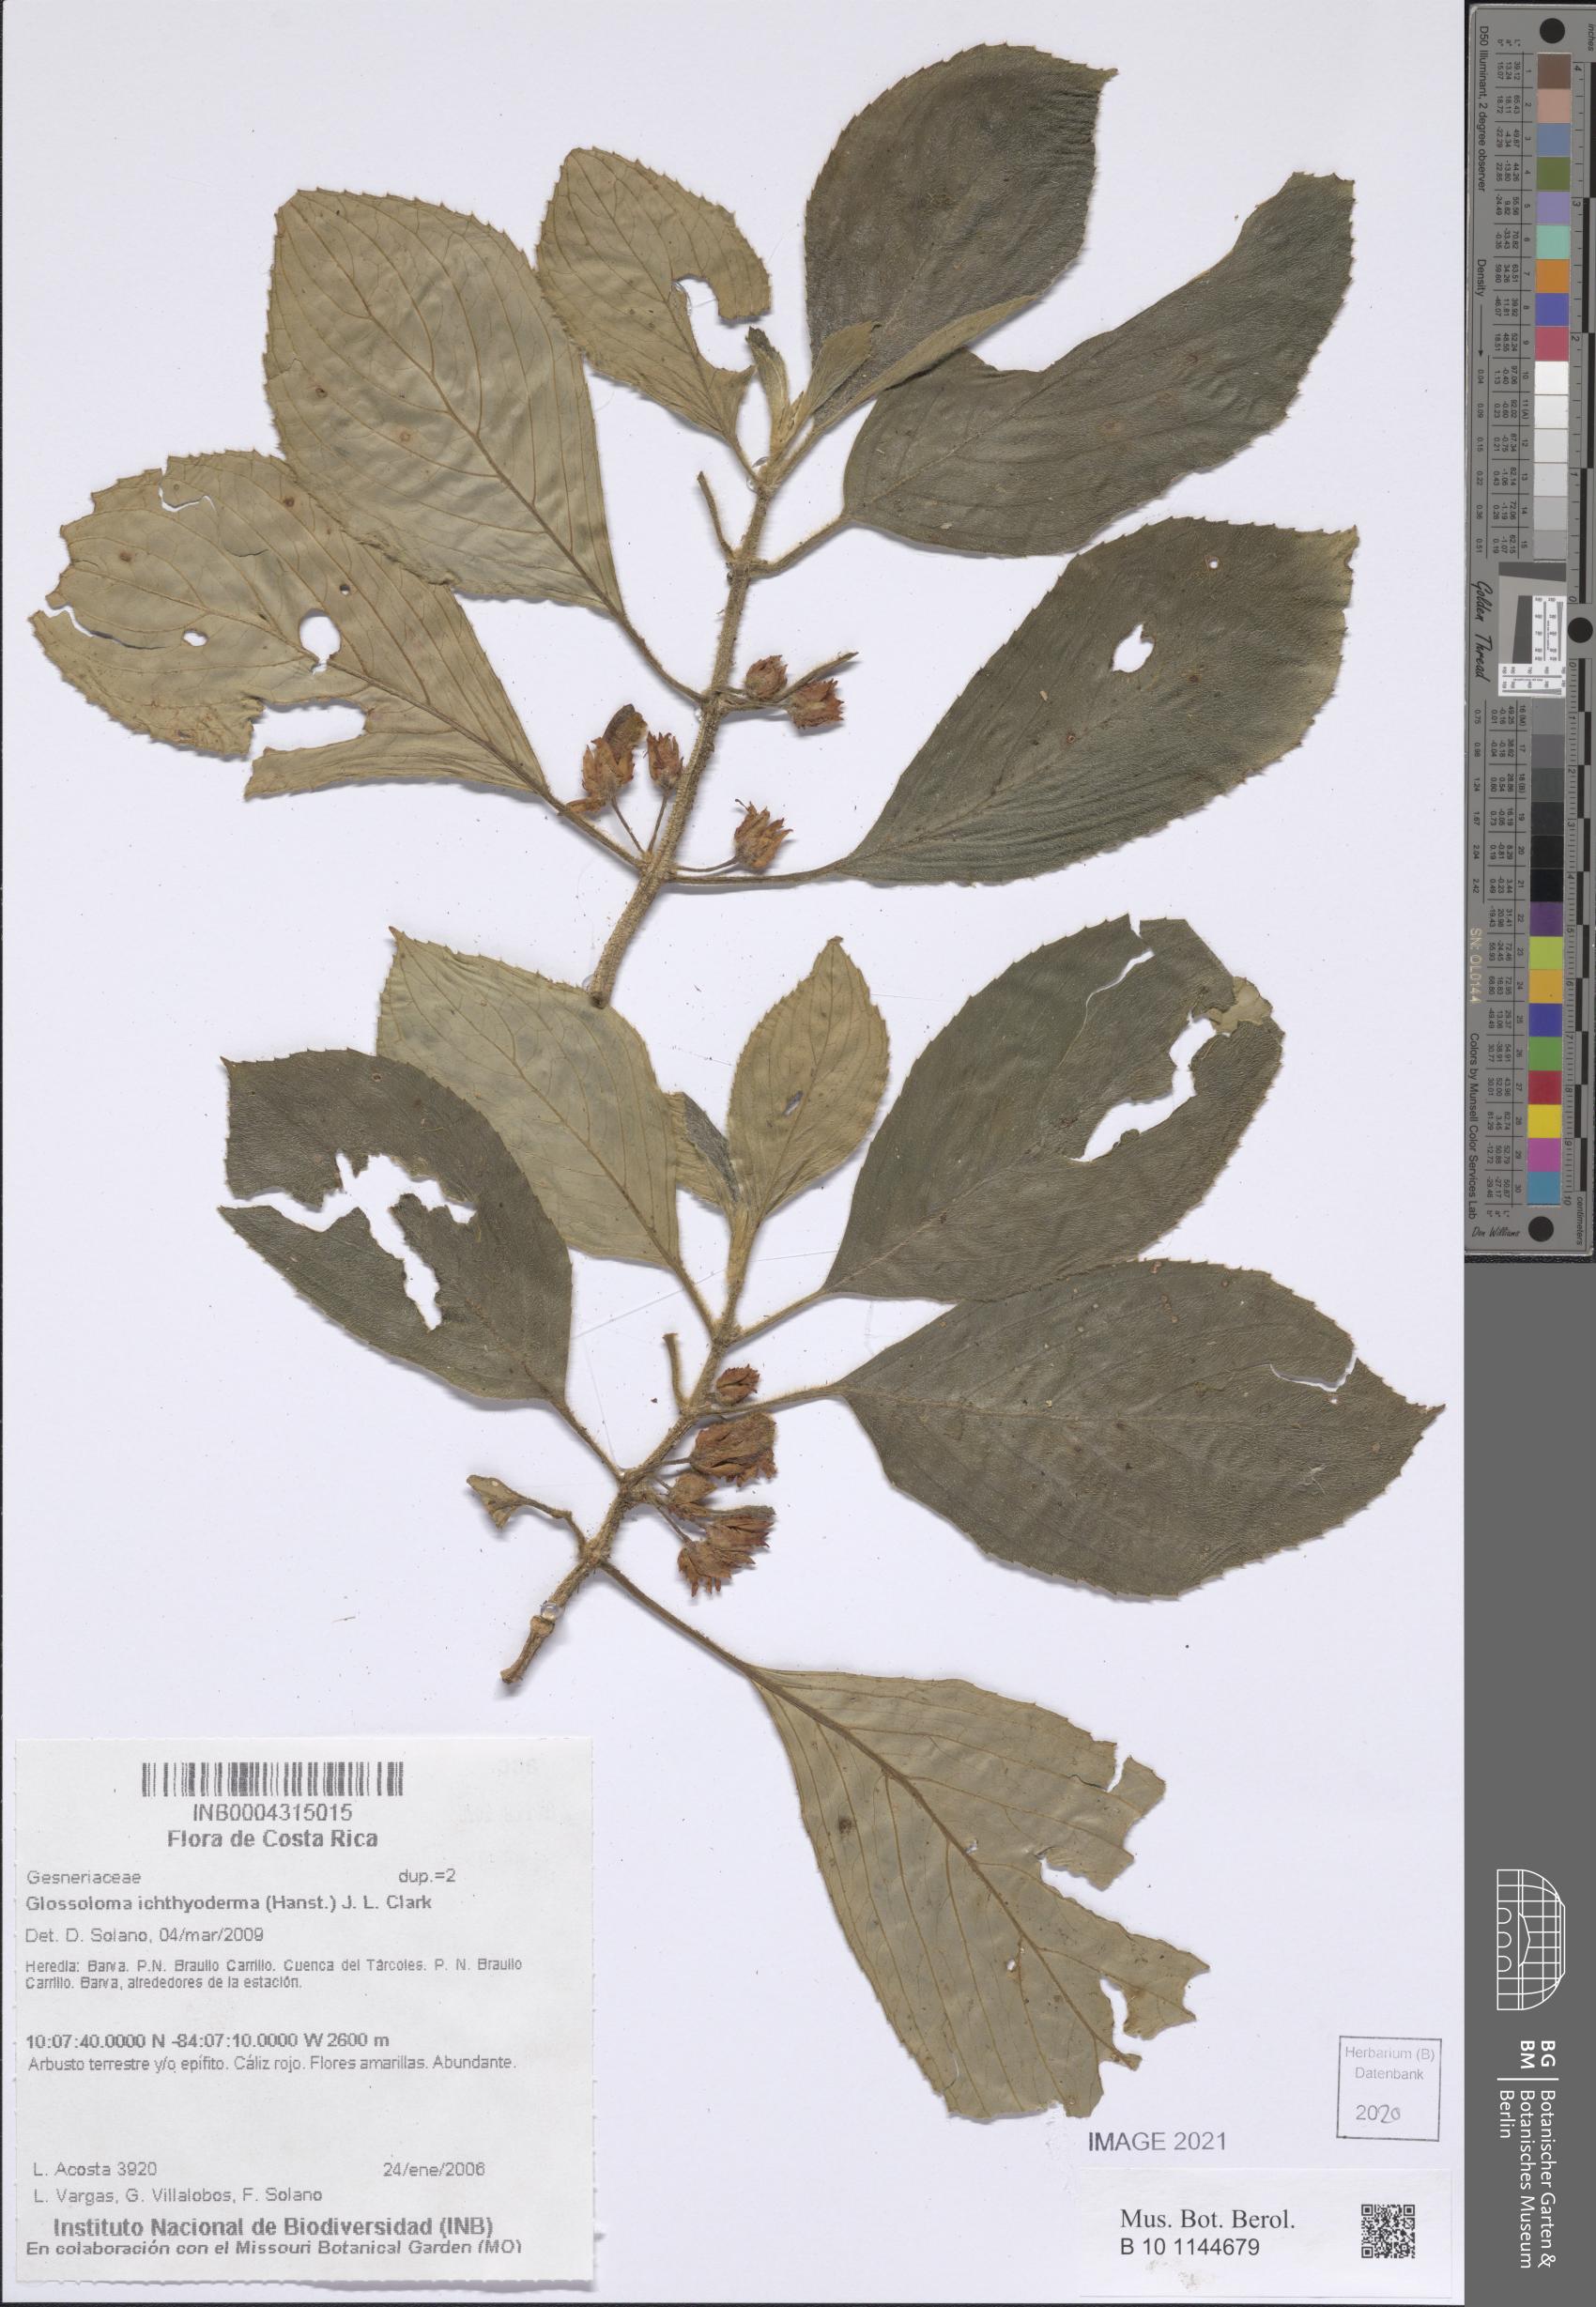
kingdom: Plantae
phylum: Tracheophyta
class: Magnoliopsida
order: Lamiales
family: Gesneriaceae
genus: Glossoloma
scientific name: Glossoloma ichthyoderma
